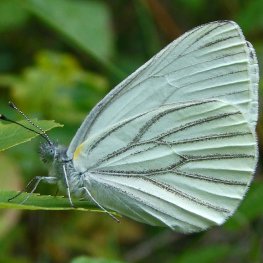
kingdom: Animalia
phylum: Arthropoda
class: Insecta
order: Lepidoptera
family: Pieridae
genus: Pieris
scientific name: Pieris oleracea
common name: Mustard White
